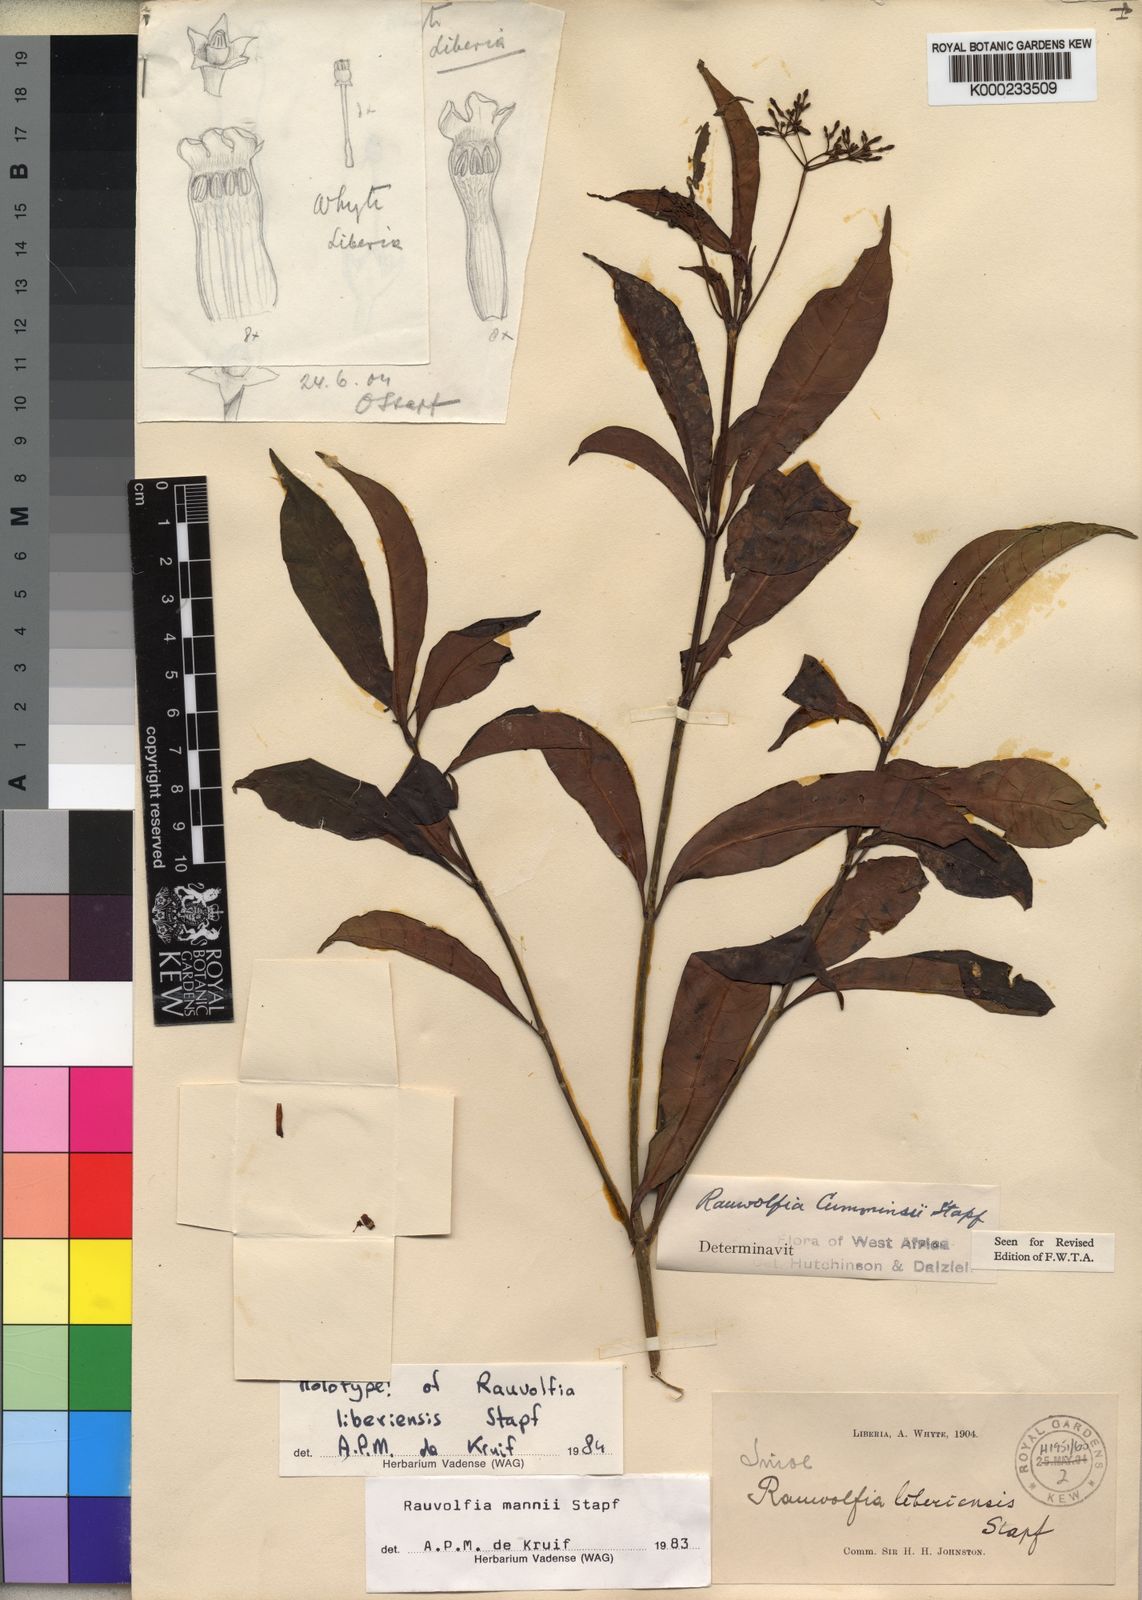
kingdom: Plantae
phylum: Tracheophyta
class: Magnoliopsida
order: Gentianales
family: Apocynaceae
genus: Rauvolfia
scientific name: Rauvolfia mannii
